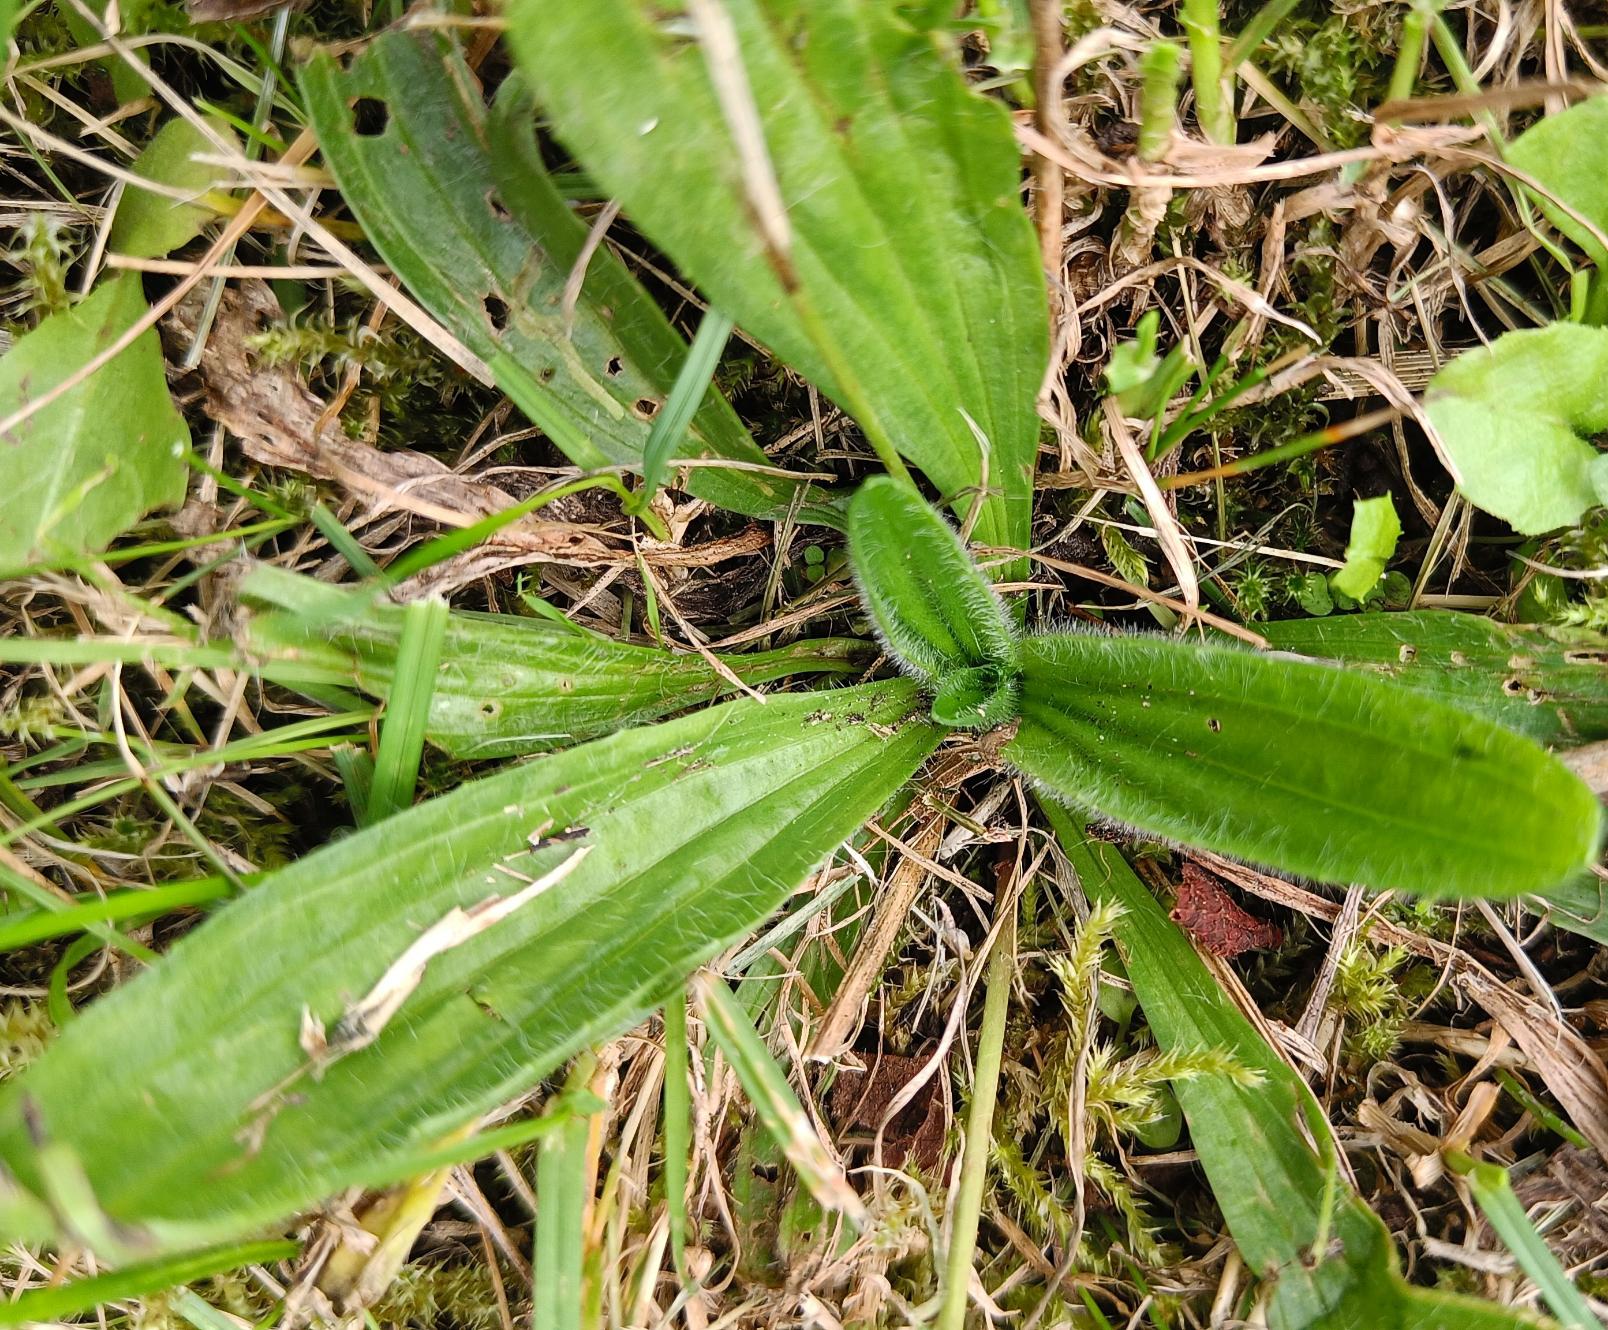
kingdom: Plantae
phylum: Tracheophyta
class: Magnoliopsida
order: Lamiales
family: Plantaginaceae
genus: Plantago
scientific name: Plantago lanceolata
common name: Lancet-vejbred
